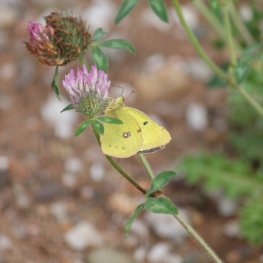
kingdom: Animalia
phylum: Arthropoda
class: Insecta
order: Lepidoptera
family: Pieridae
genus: Colias
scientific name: Colias philodice
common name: Clouded Sulphur
